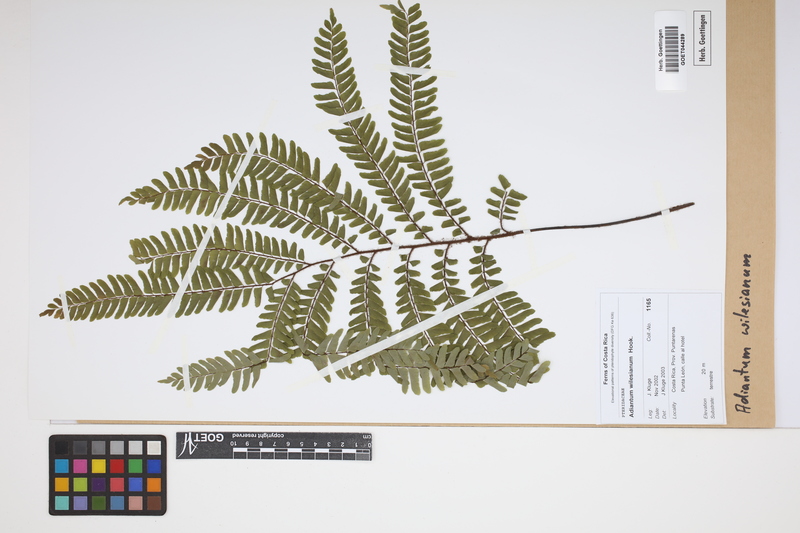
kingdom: Plantae
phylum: Tracheophyta
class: Polypodiopsida
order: Polypodiales
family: Pteridaceae
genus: Adiantum
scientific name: Adiantum wilesianum
